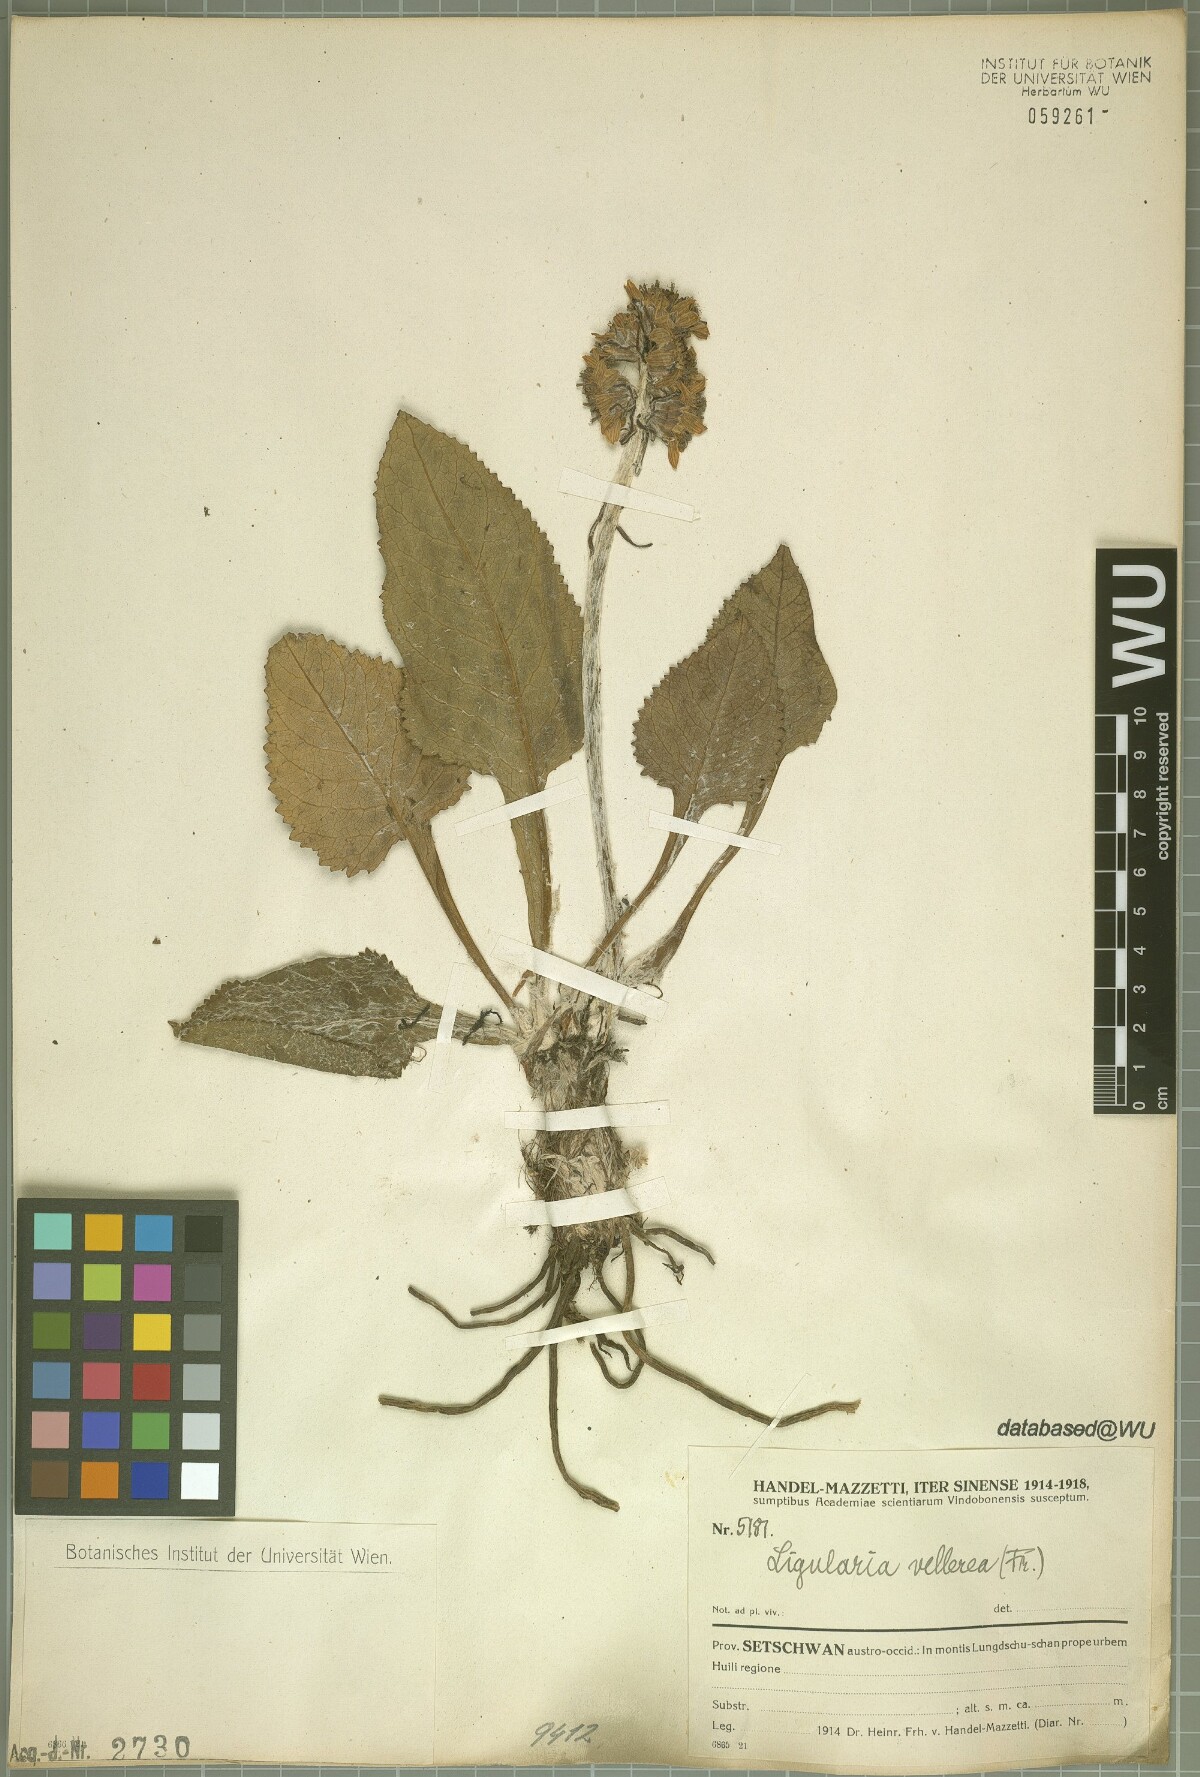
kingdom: Plantae
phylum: Tracheophyta
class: Magnoliopsida
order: Asterales
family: Asteraceae
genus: Ligularia
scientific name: Ligularia vellerea
